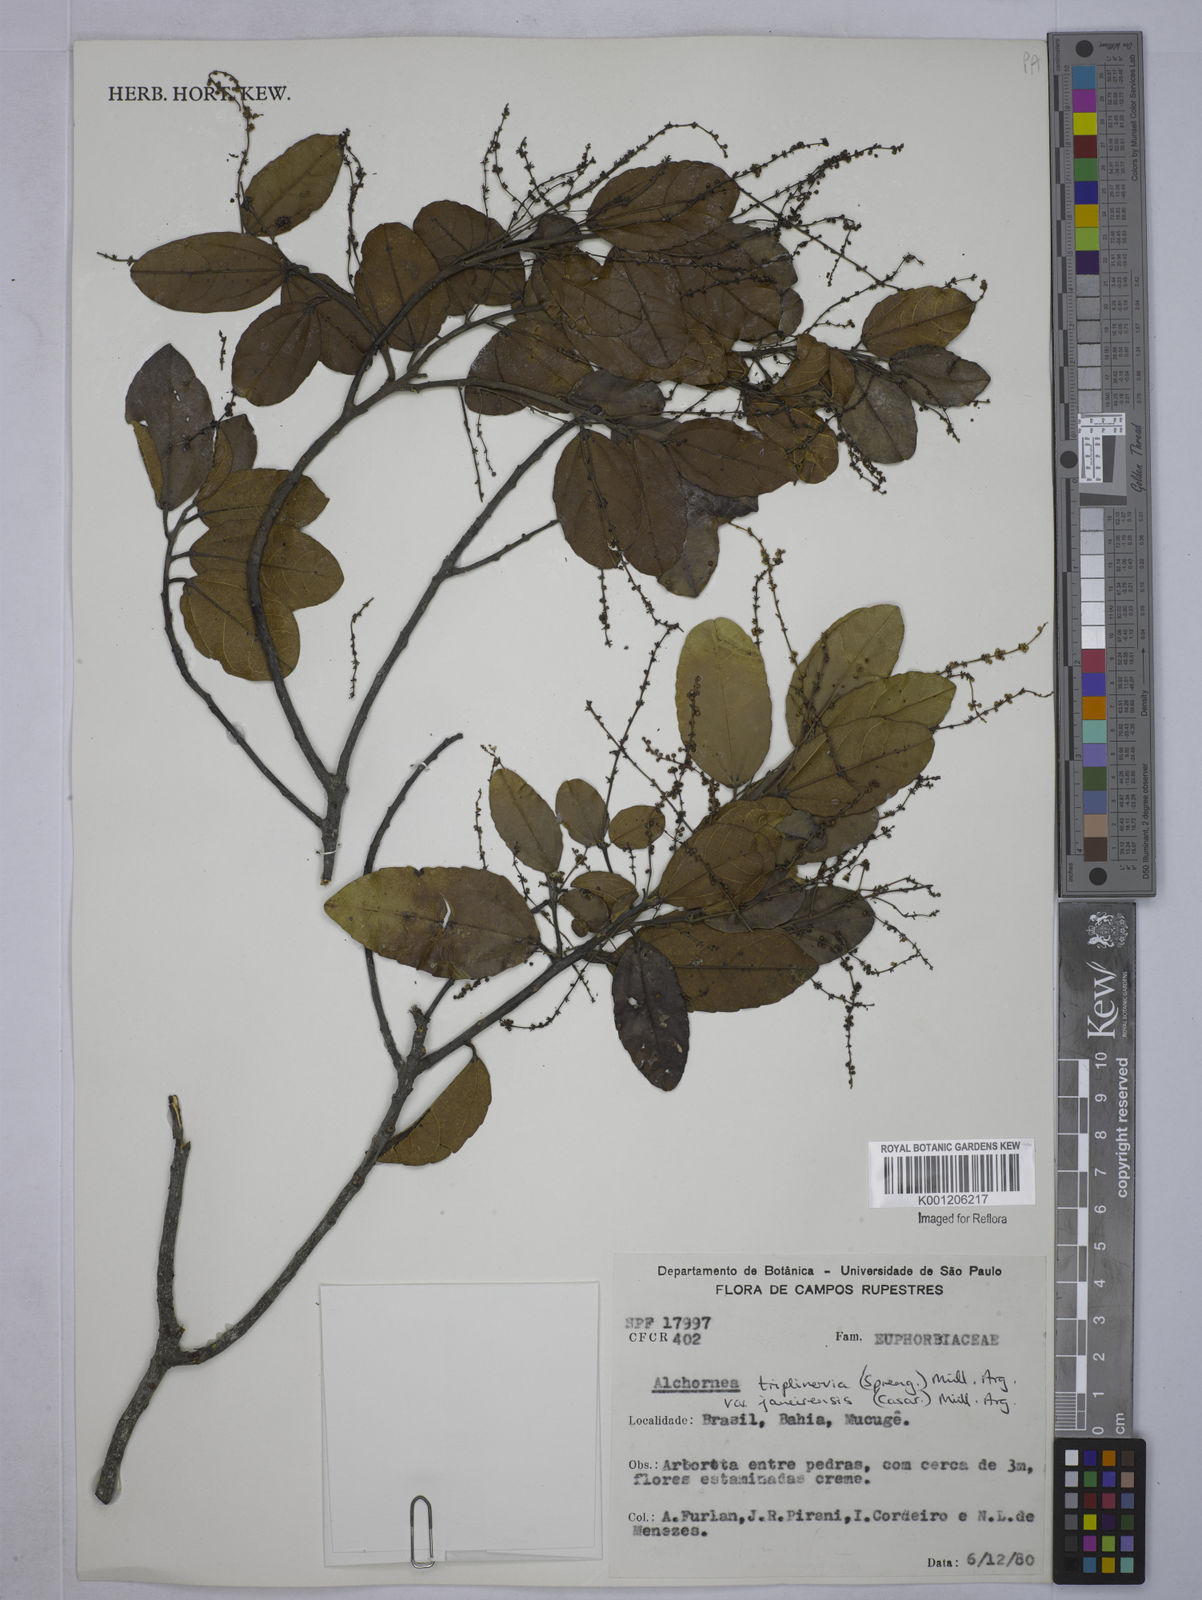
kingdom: Plantae
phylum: Tracheophyta
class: Magnoliopsida
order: Malpighiales
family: Euphorbiaceae
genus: Alchornea
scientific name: Alchornea
